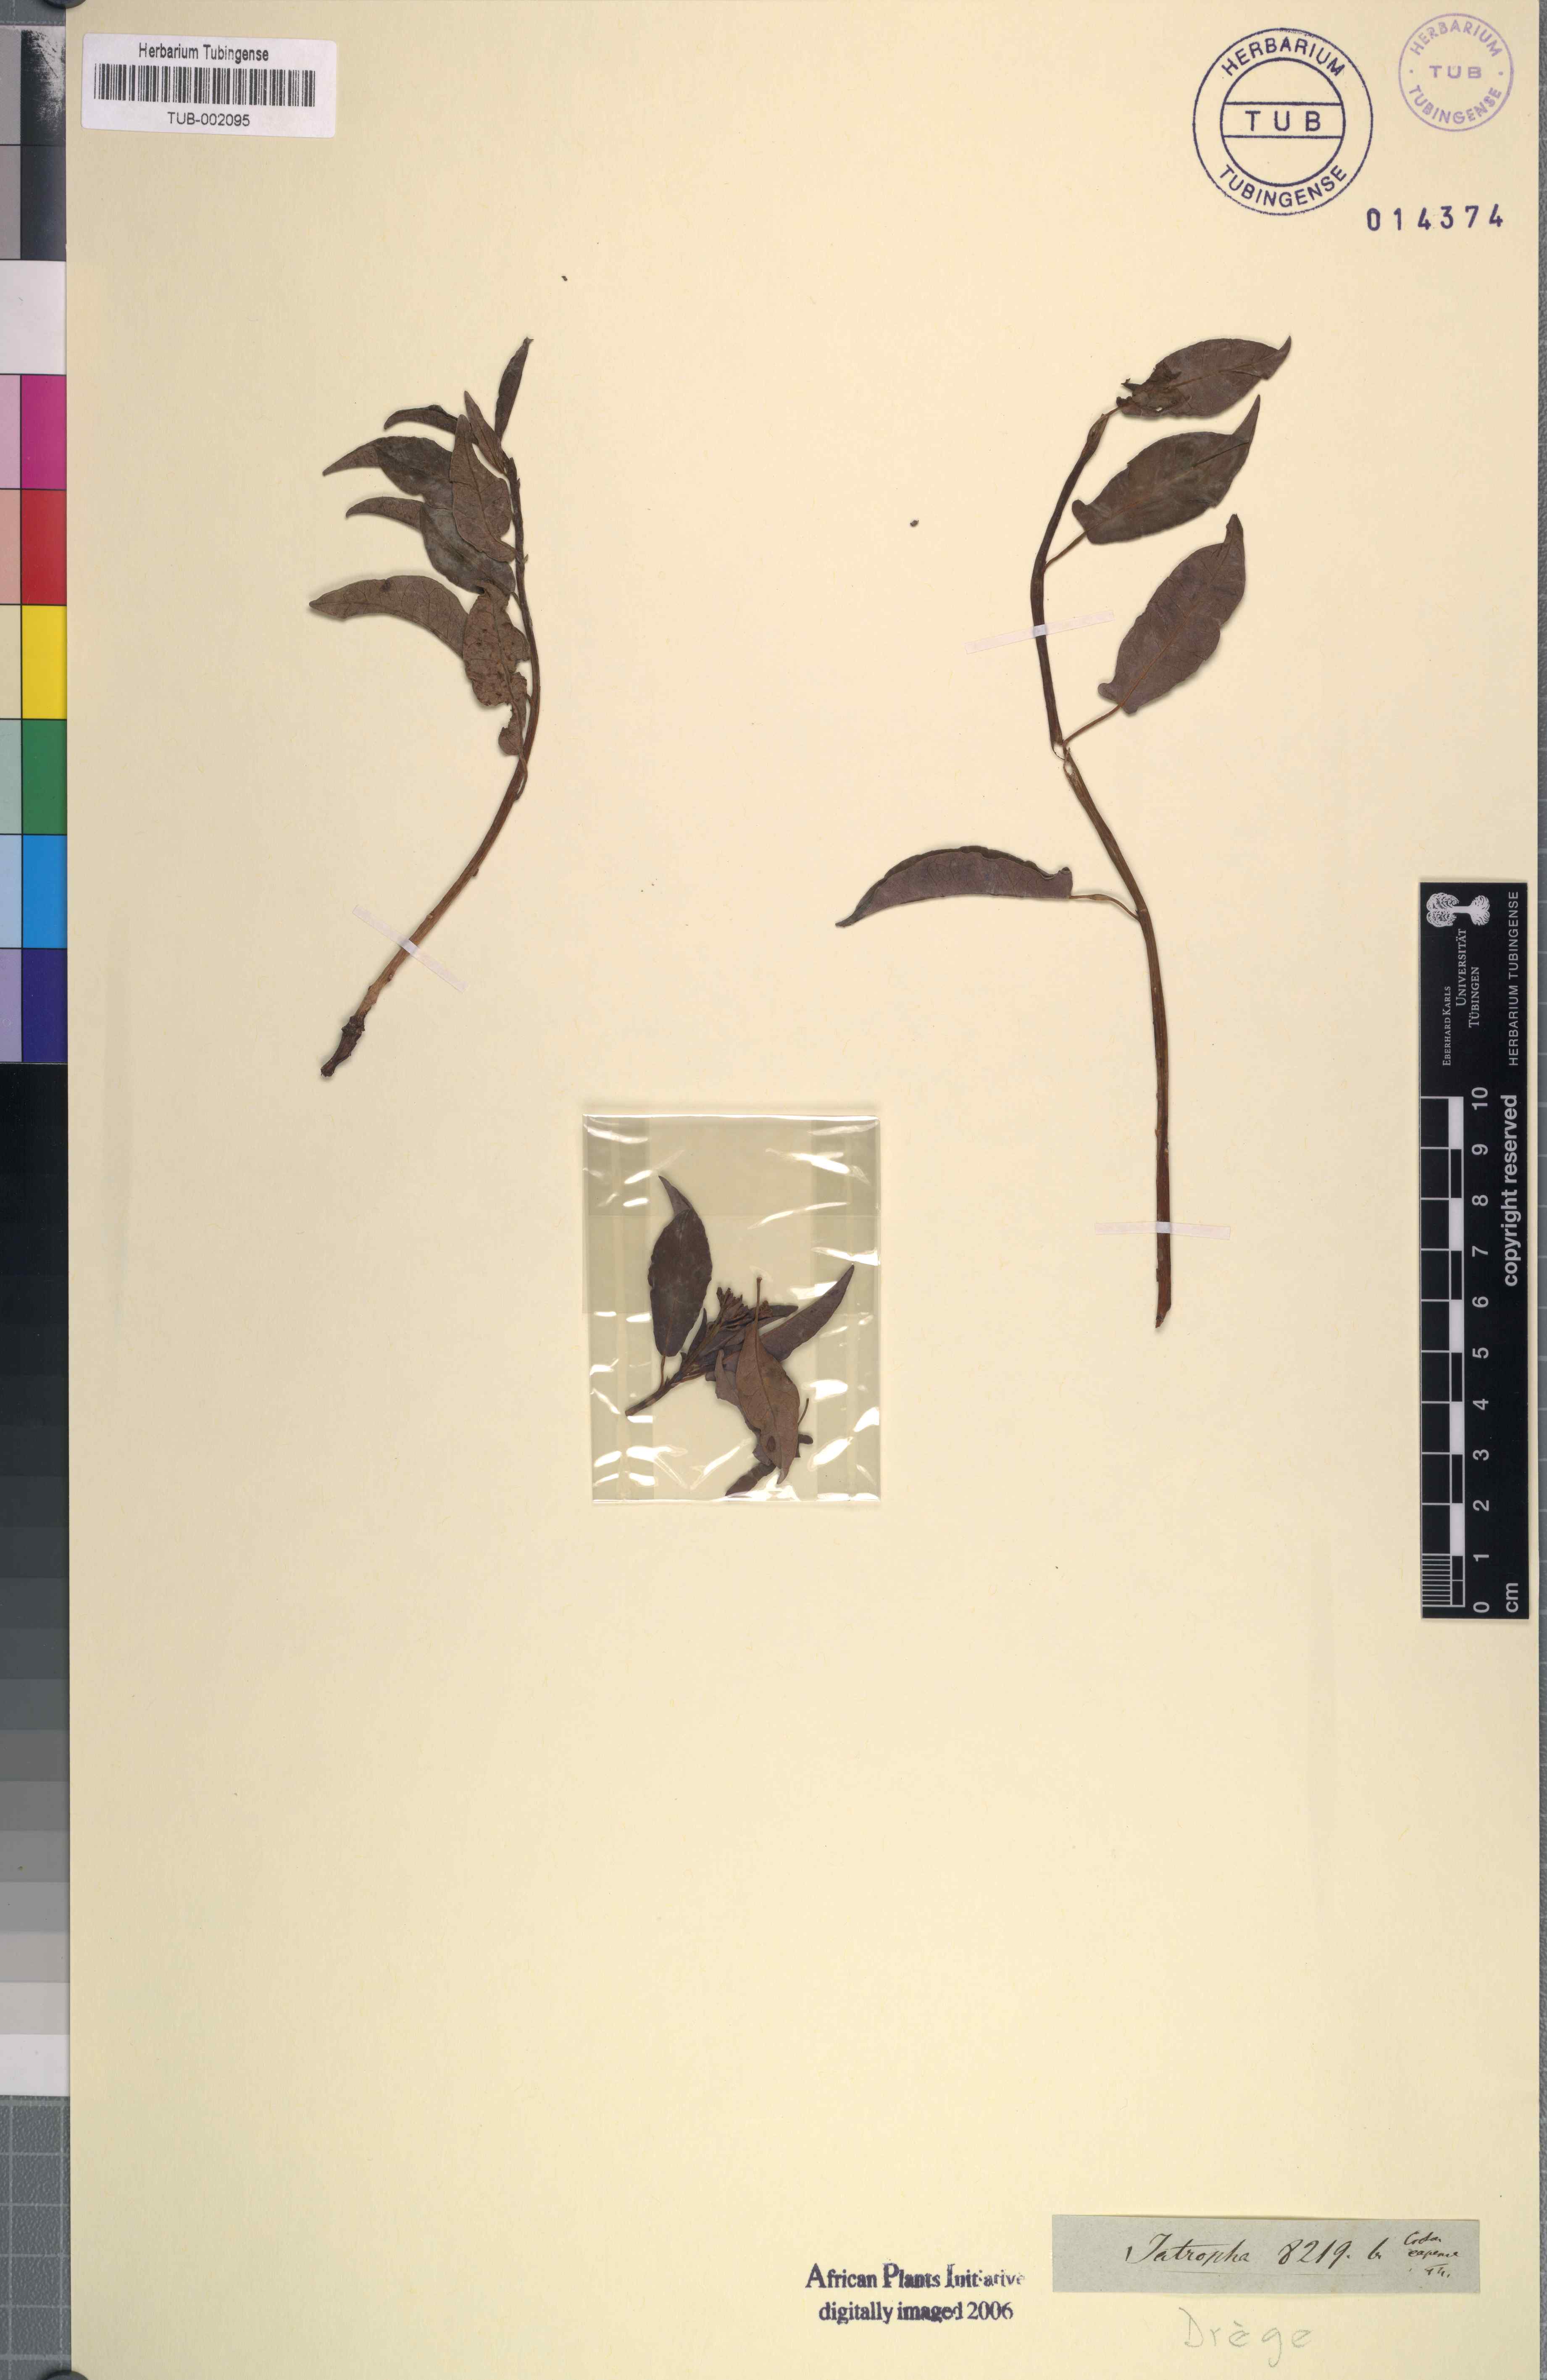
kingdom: Plantae
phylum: Tracheophyta
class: Magnoliopsida
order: Malpighiales
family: Euphorbiaceae
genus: Jatropha
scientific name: Jatropha capensis
